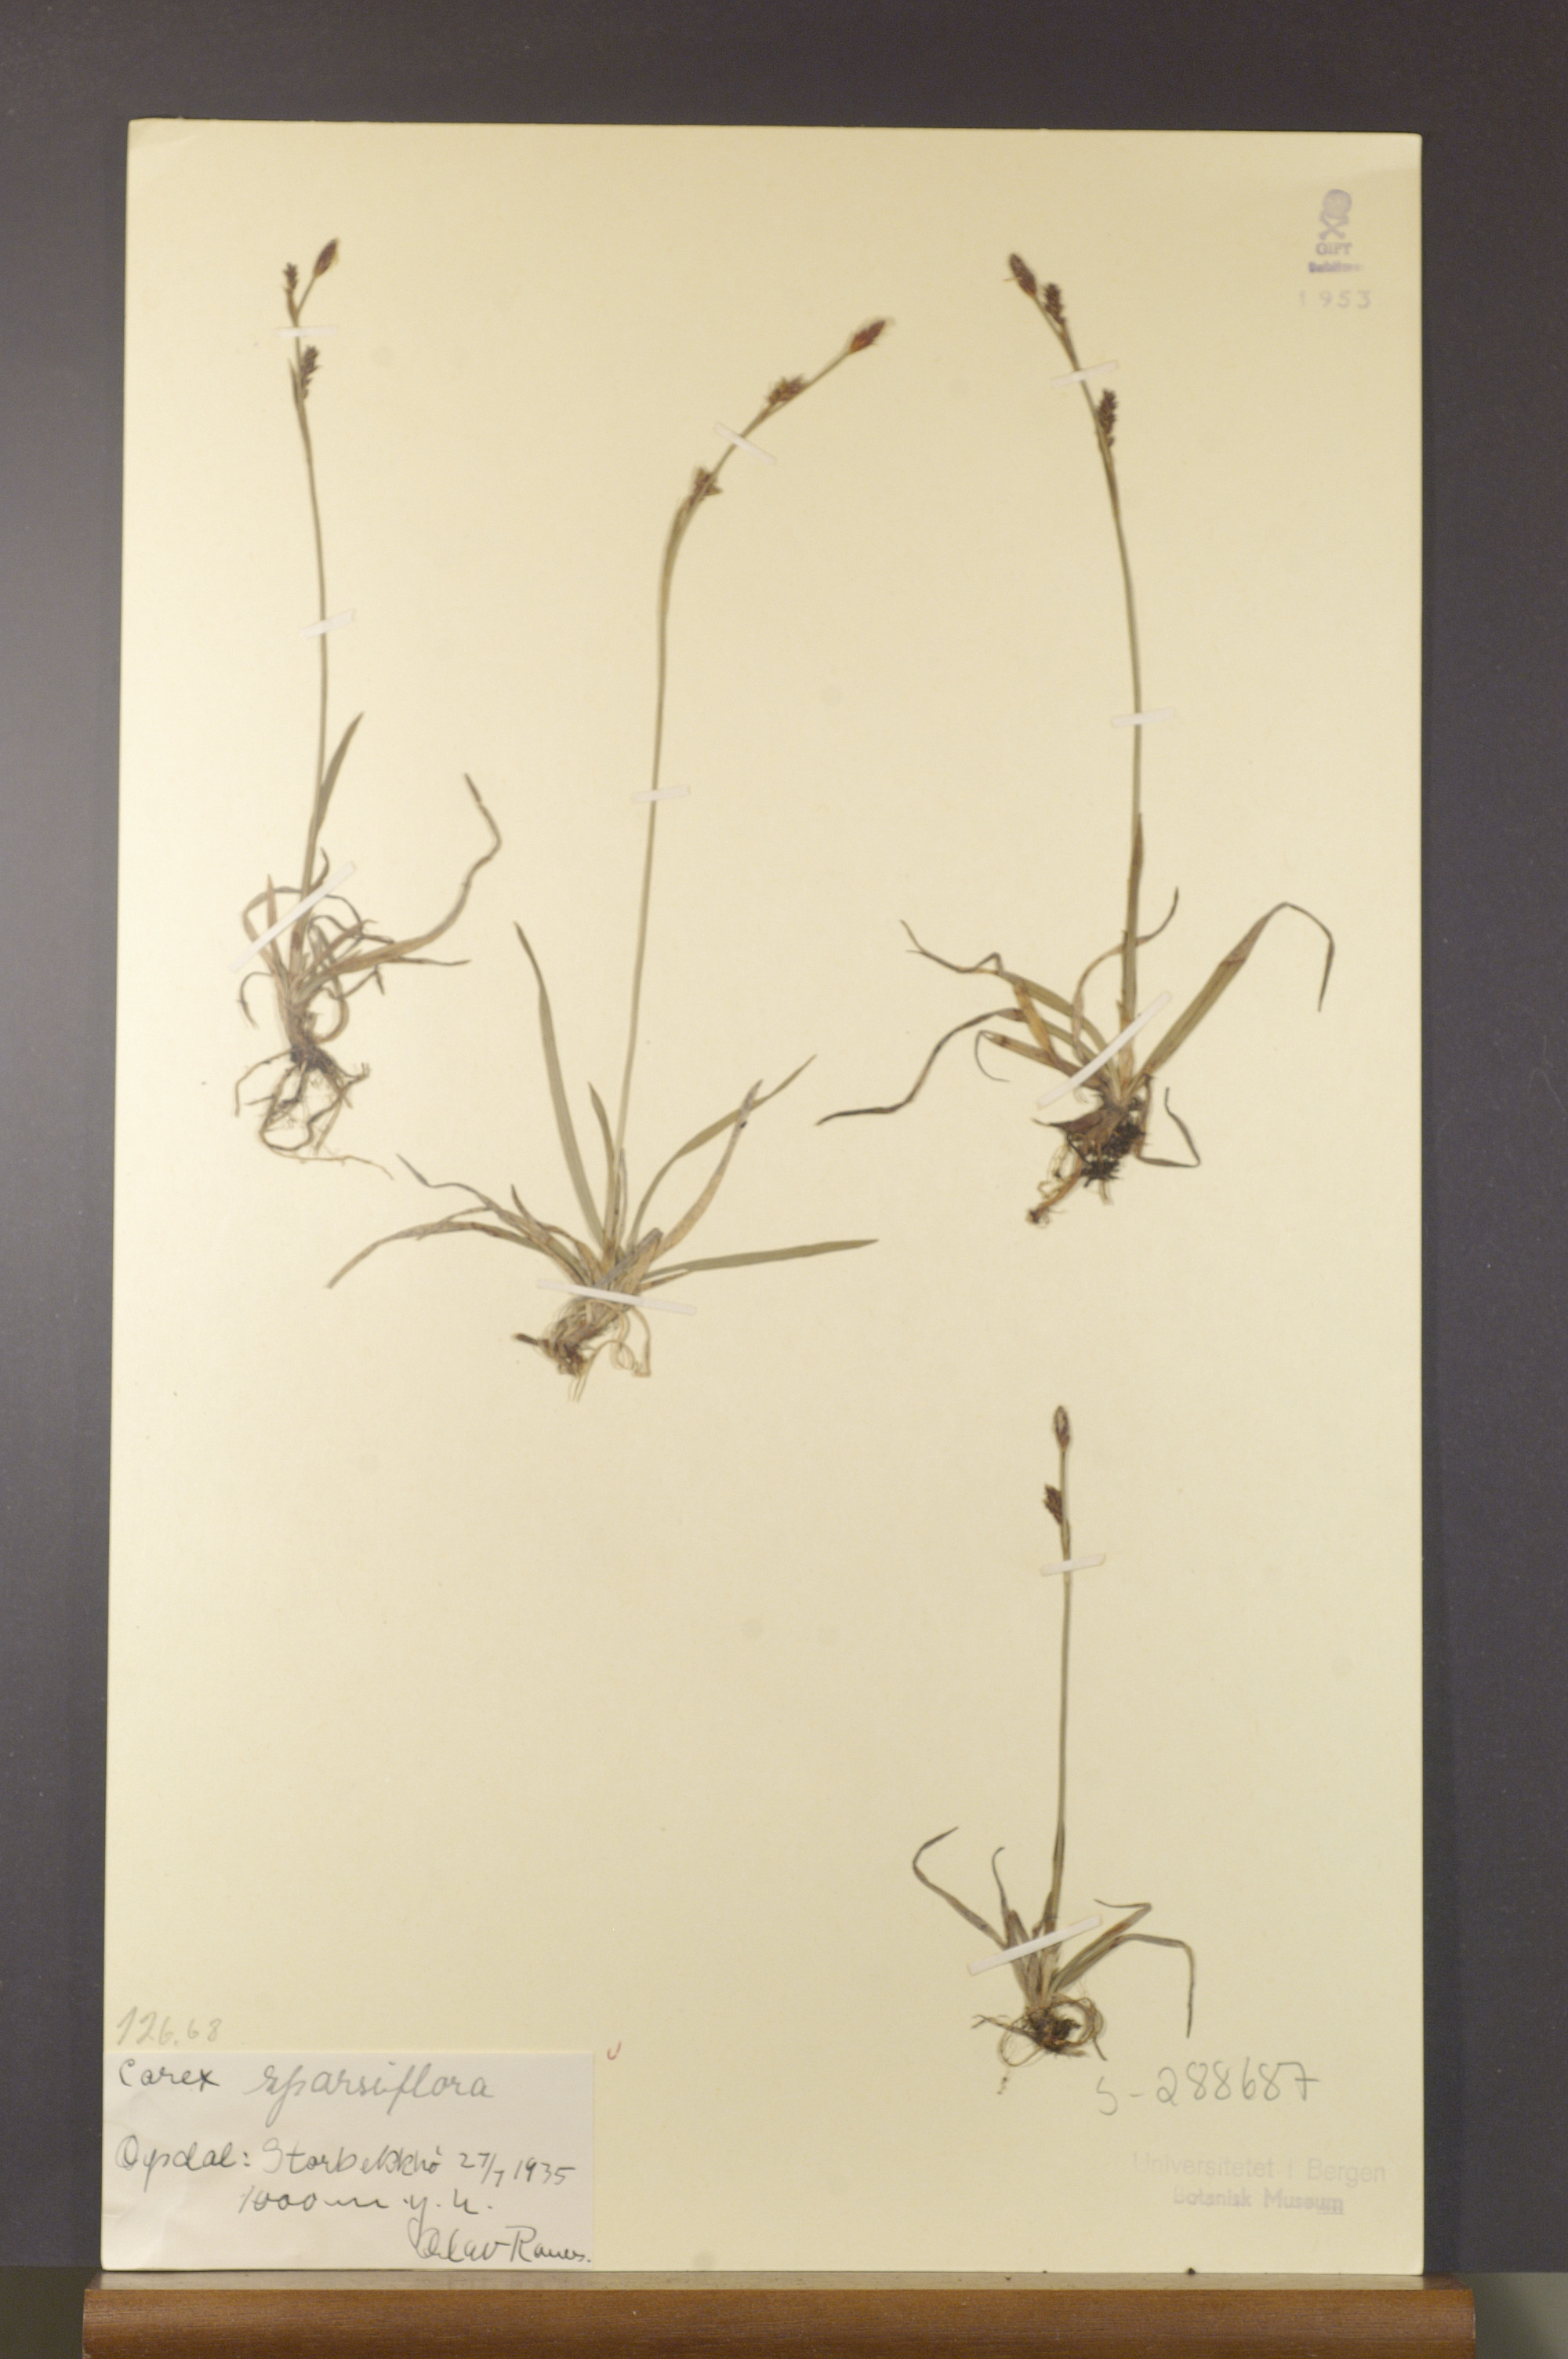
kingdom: Plantae
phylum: Tracheophyta
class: Liliopsida
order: Poales
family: Cyperaceae
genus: Carex
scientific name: Carex vaginata
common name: Sheathed sedge
